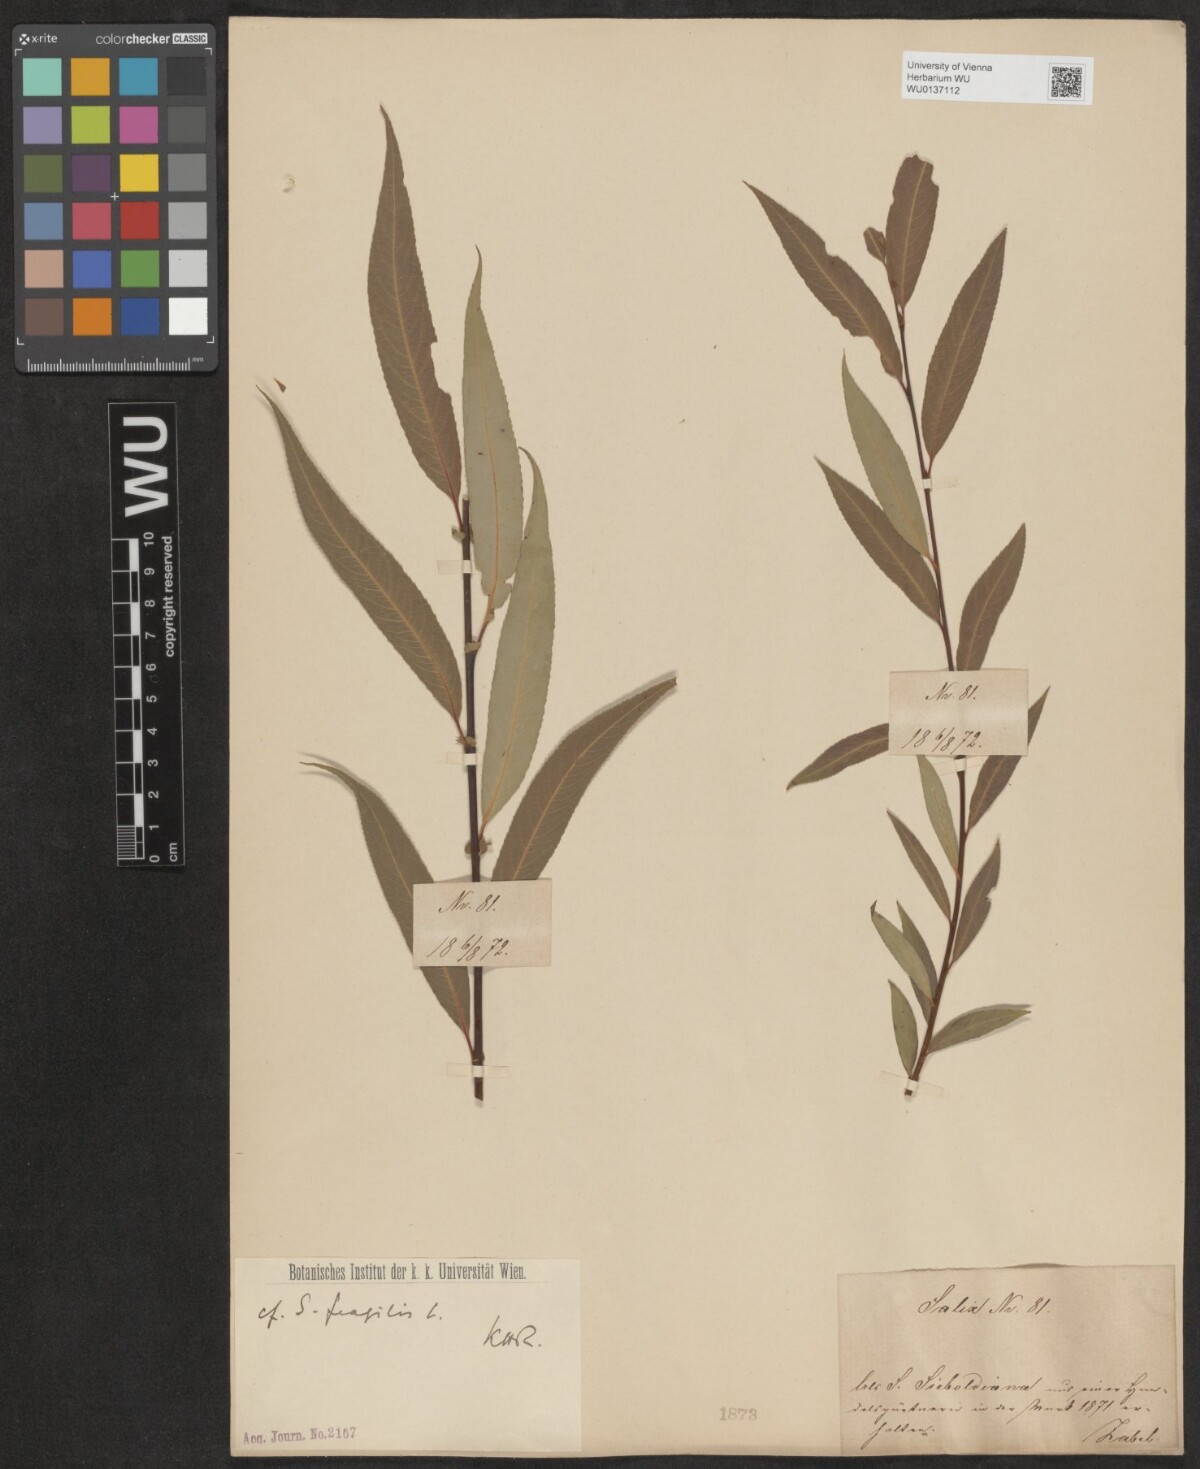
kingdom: Plantae
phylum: Tracheophyta
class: Magnoliopsida
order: Malpighiales
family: Salicaceae
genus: Salix
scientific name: Salix fragilis
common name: Crack willow
